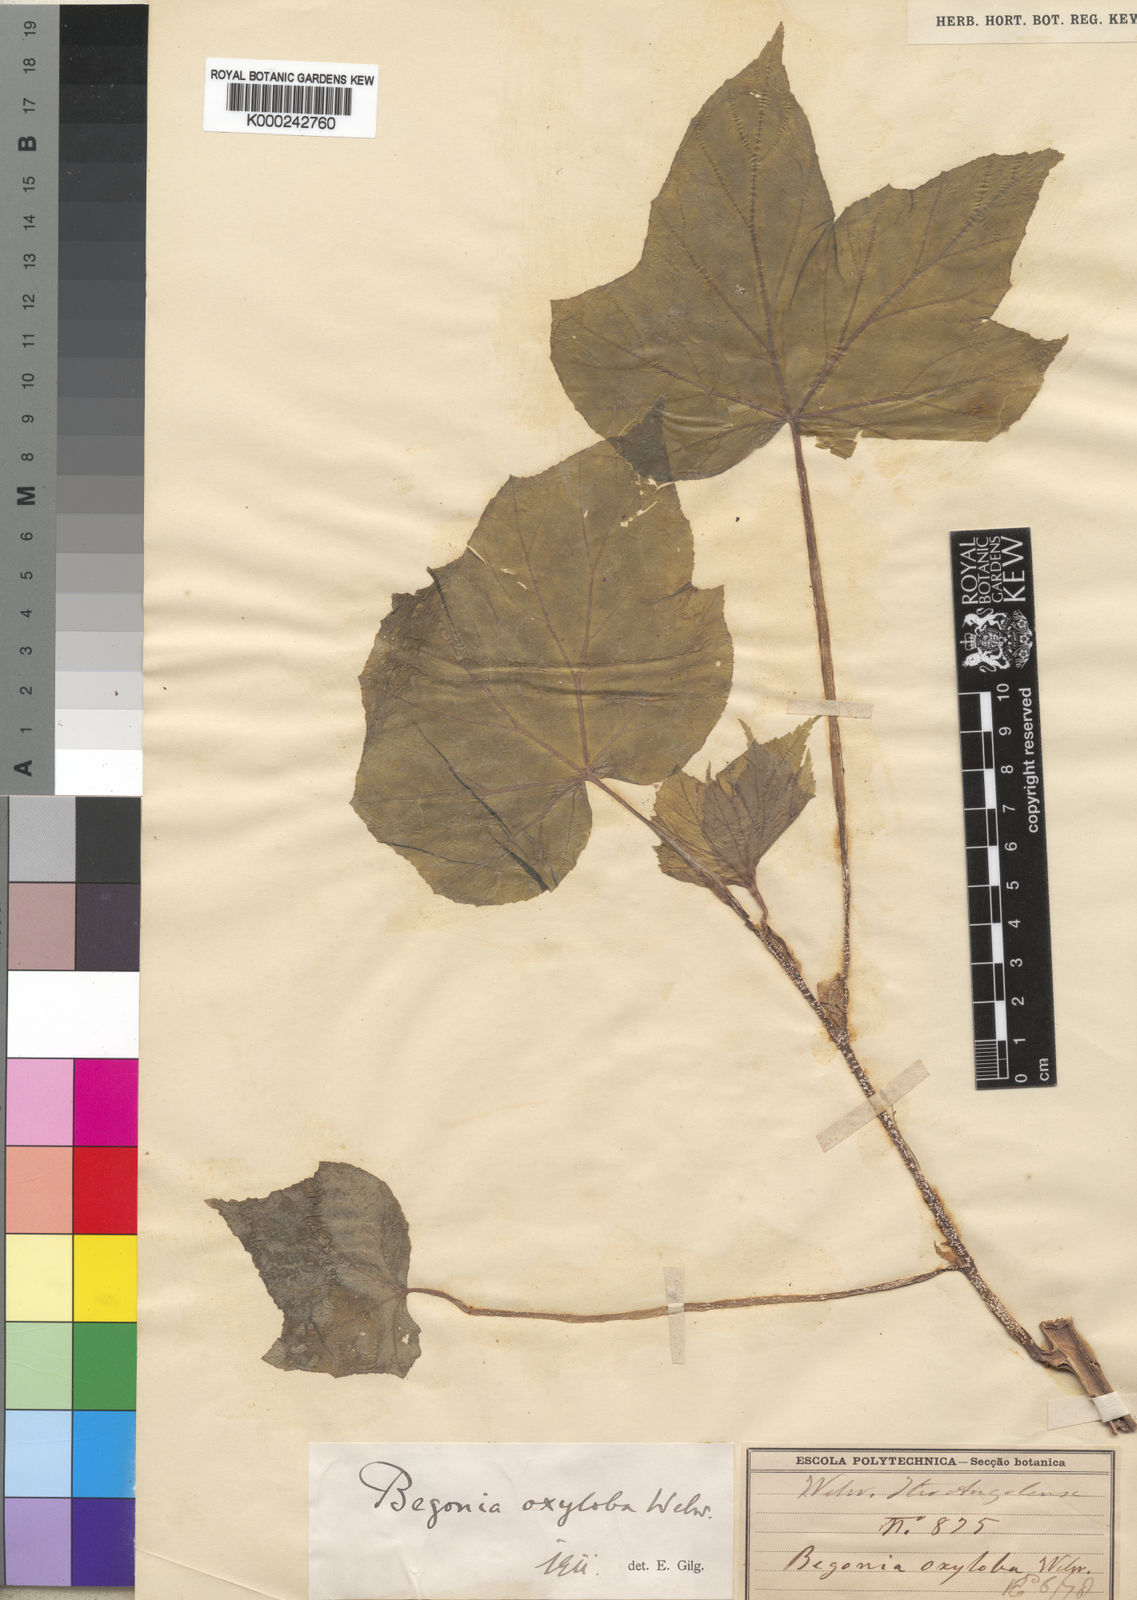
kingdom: Plantae
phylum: Tracheophyta
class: Magnoliopsida
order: Cucurbitales
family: Begoniaceae
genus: Begonia
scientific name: Begonia oxyloba
